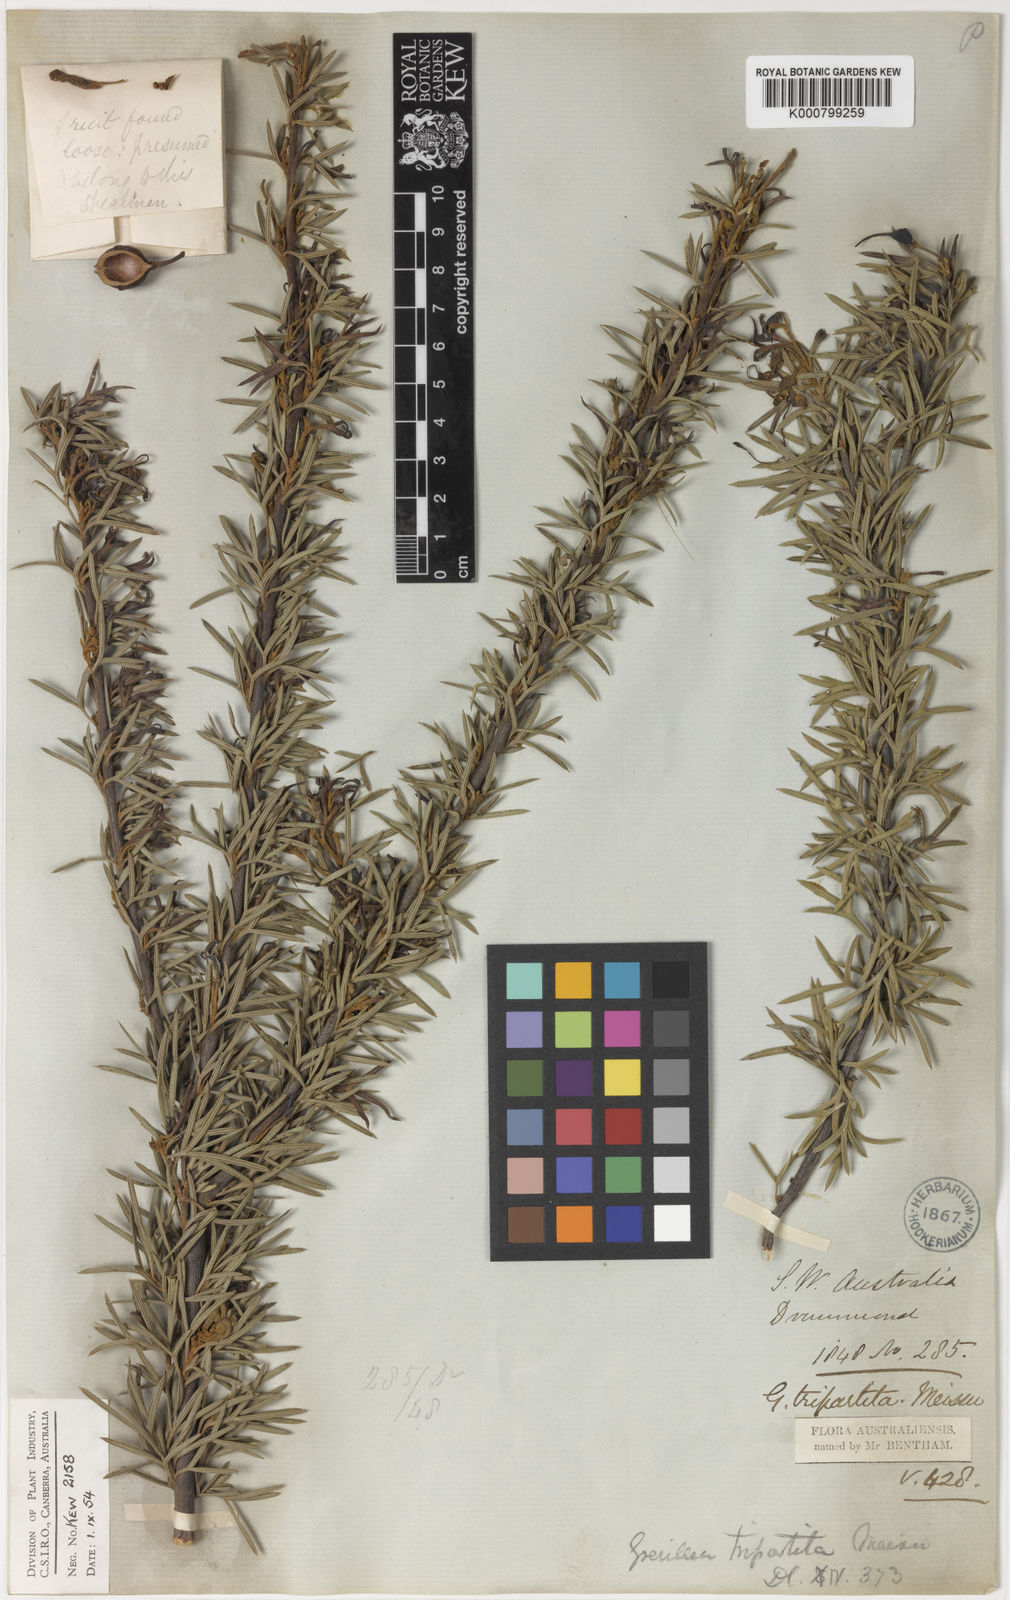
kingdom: Plantae
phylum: Tracheophyta
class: Magnoliopsida
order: Proteales
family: Proteaceae
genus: Grevillea
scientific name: Grevillea tripartita
